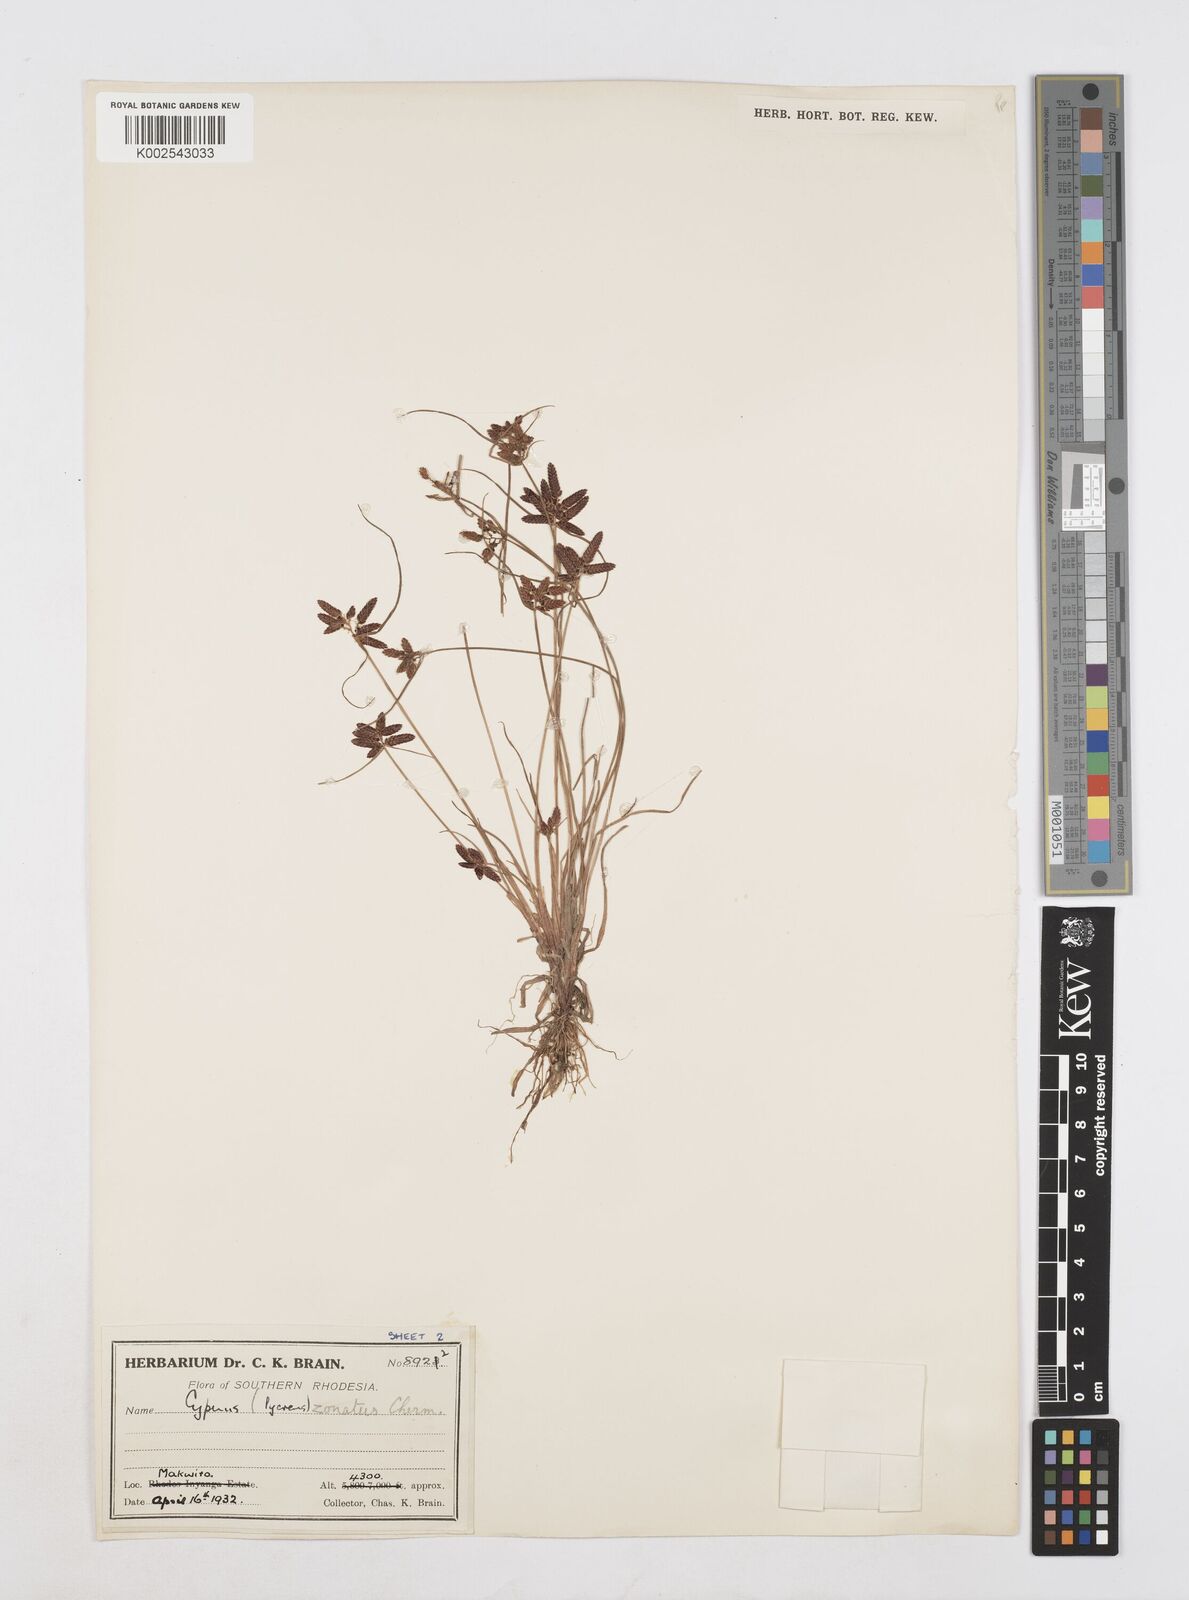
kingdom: Plantae
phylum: Tracheophyta
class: Liliopsida
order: Poales
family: Cyperaceae
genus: Cyperus
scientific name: Cyperus zonatissimus
